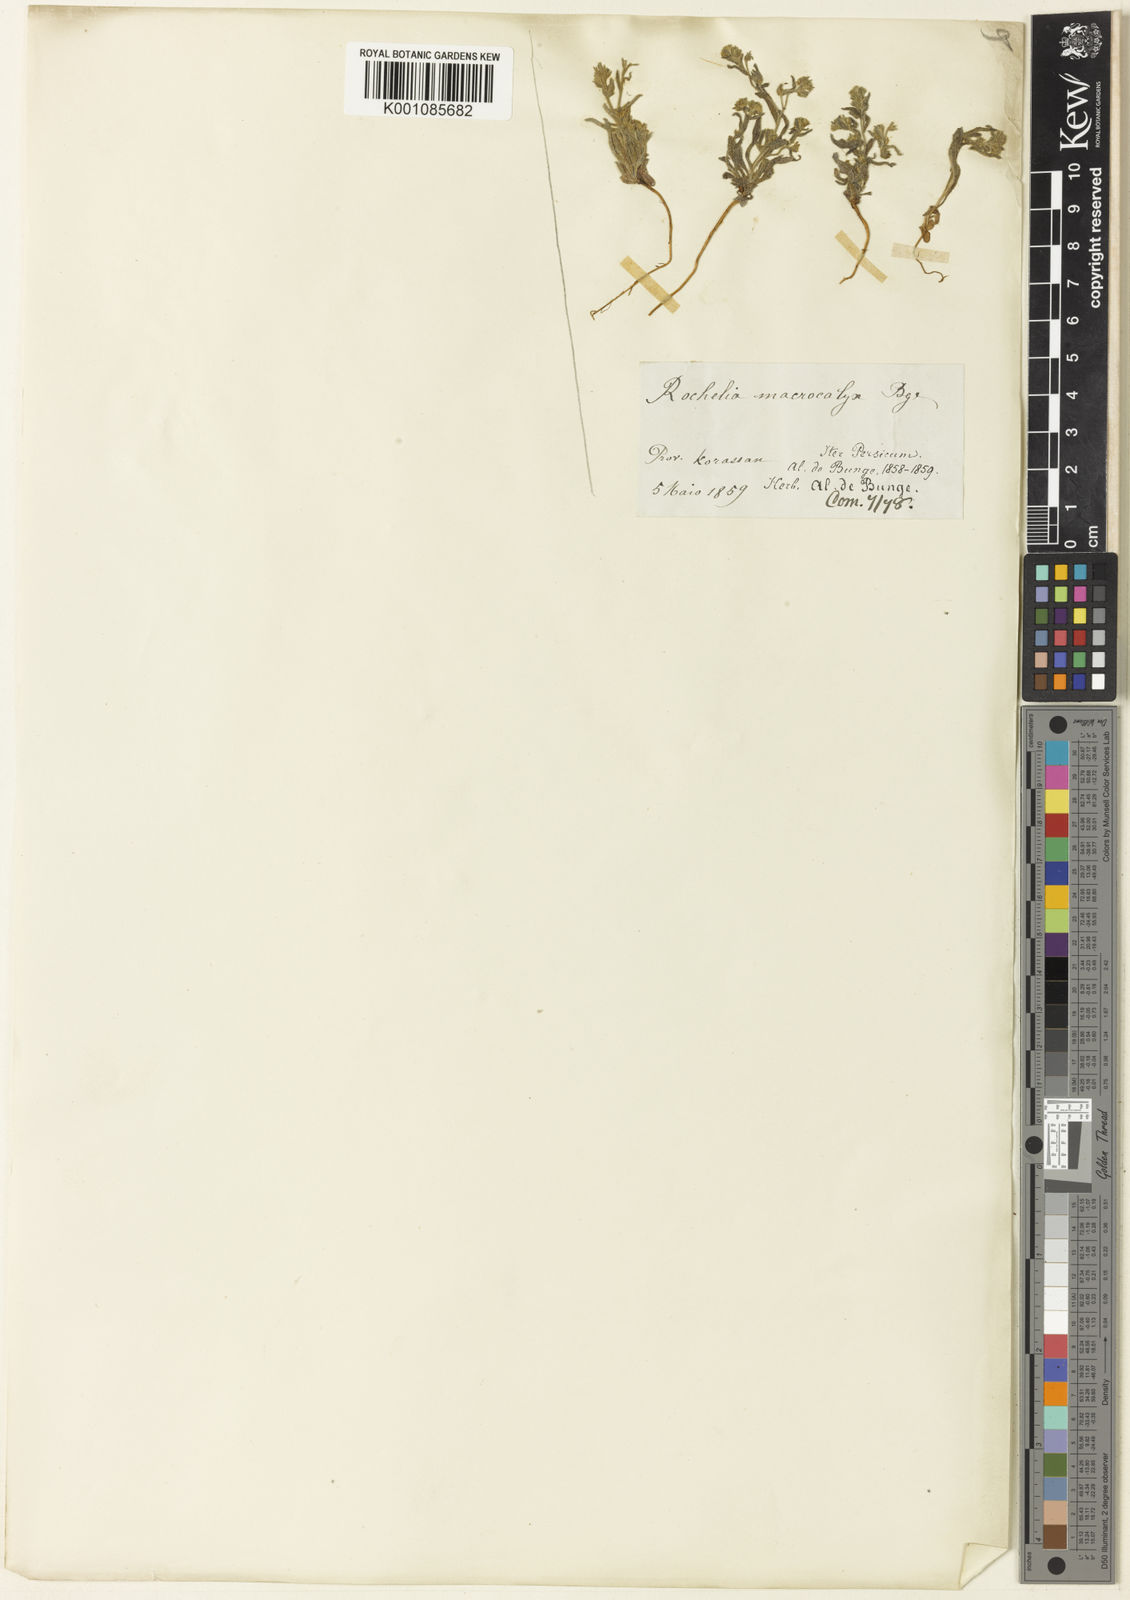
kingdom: Plantae
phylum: Tracheophyta
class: Magnoliopsida
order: Boraginales
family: Boraginaceae
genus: Anchusa
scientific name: Anchusa officinalis
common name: Alkanet
